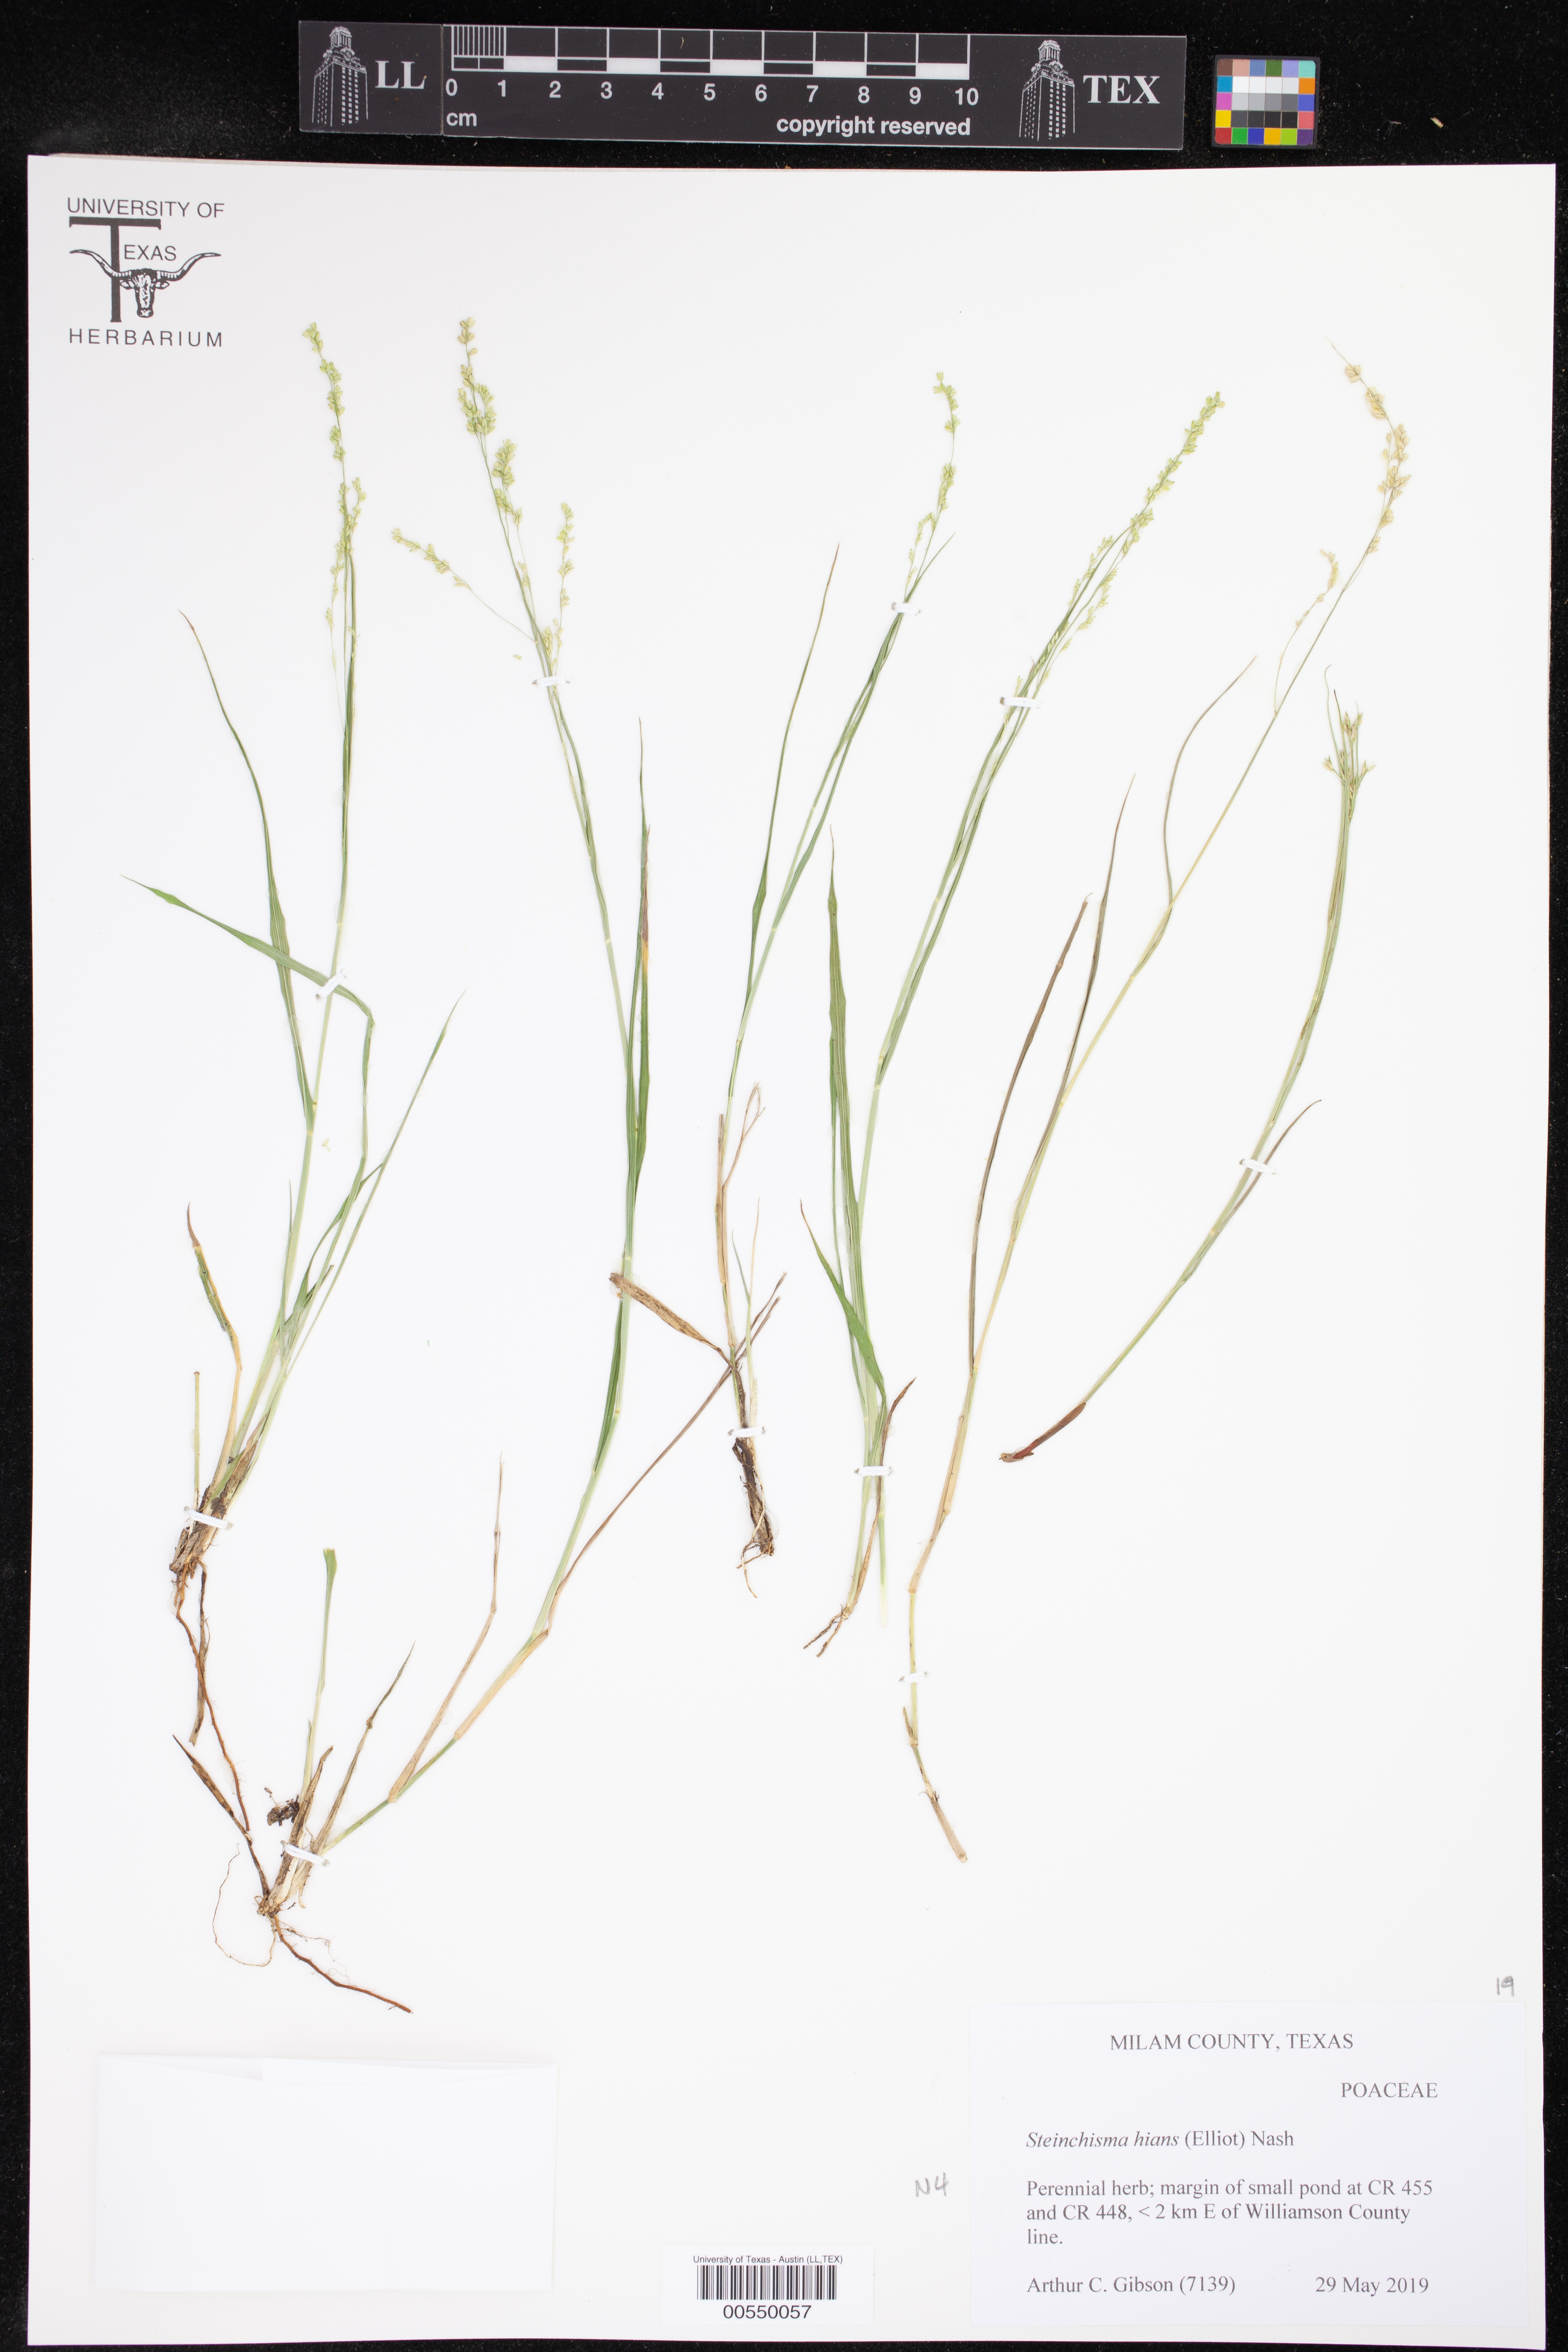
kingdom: Plantae
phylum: Tracheophyta
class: Liliopsida
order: Poales
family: Poaceae
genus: Steinchisma
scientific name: Steinchisma hians
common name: Gaping panic grass
